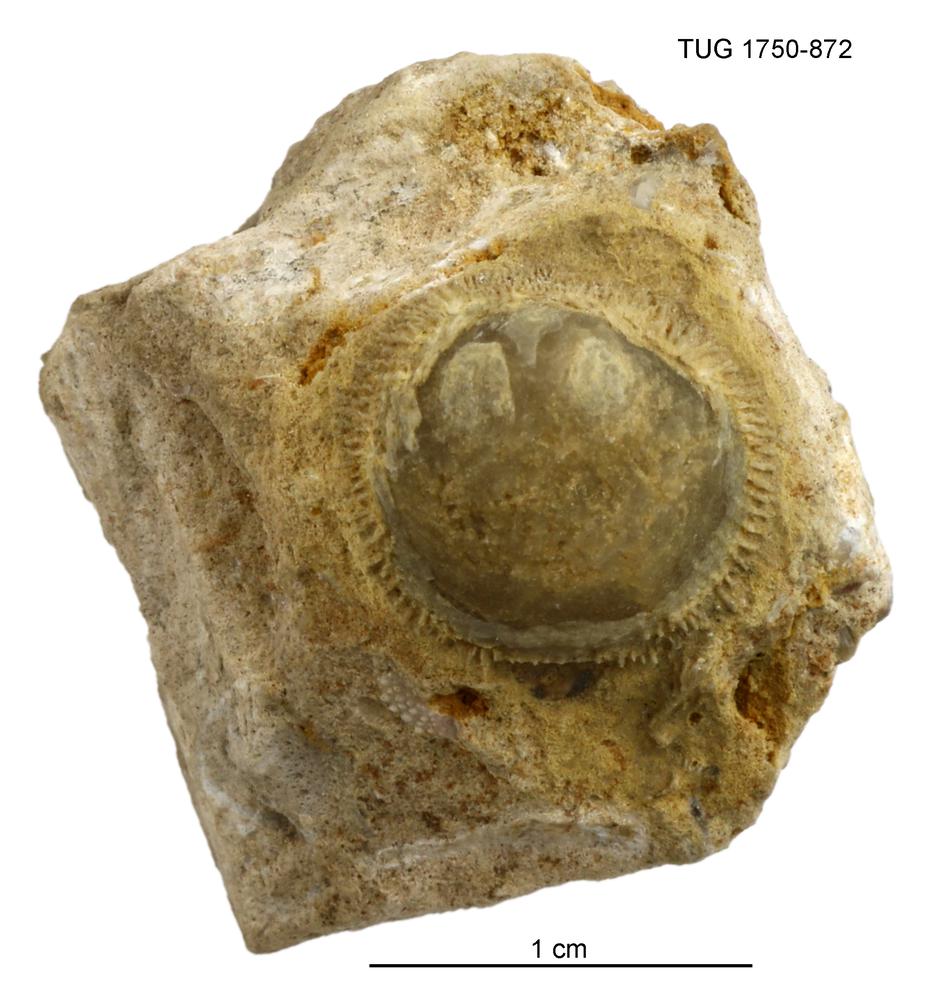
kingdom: Animalia
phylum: Brachiopoda
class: Craniata
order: Craniida
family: Craniidae
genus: Philhedra
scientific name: Philhedra
